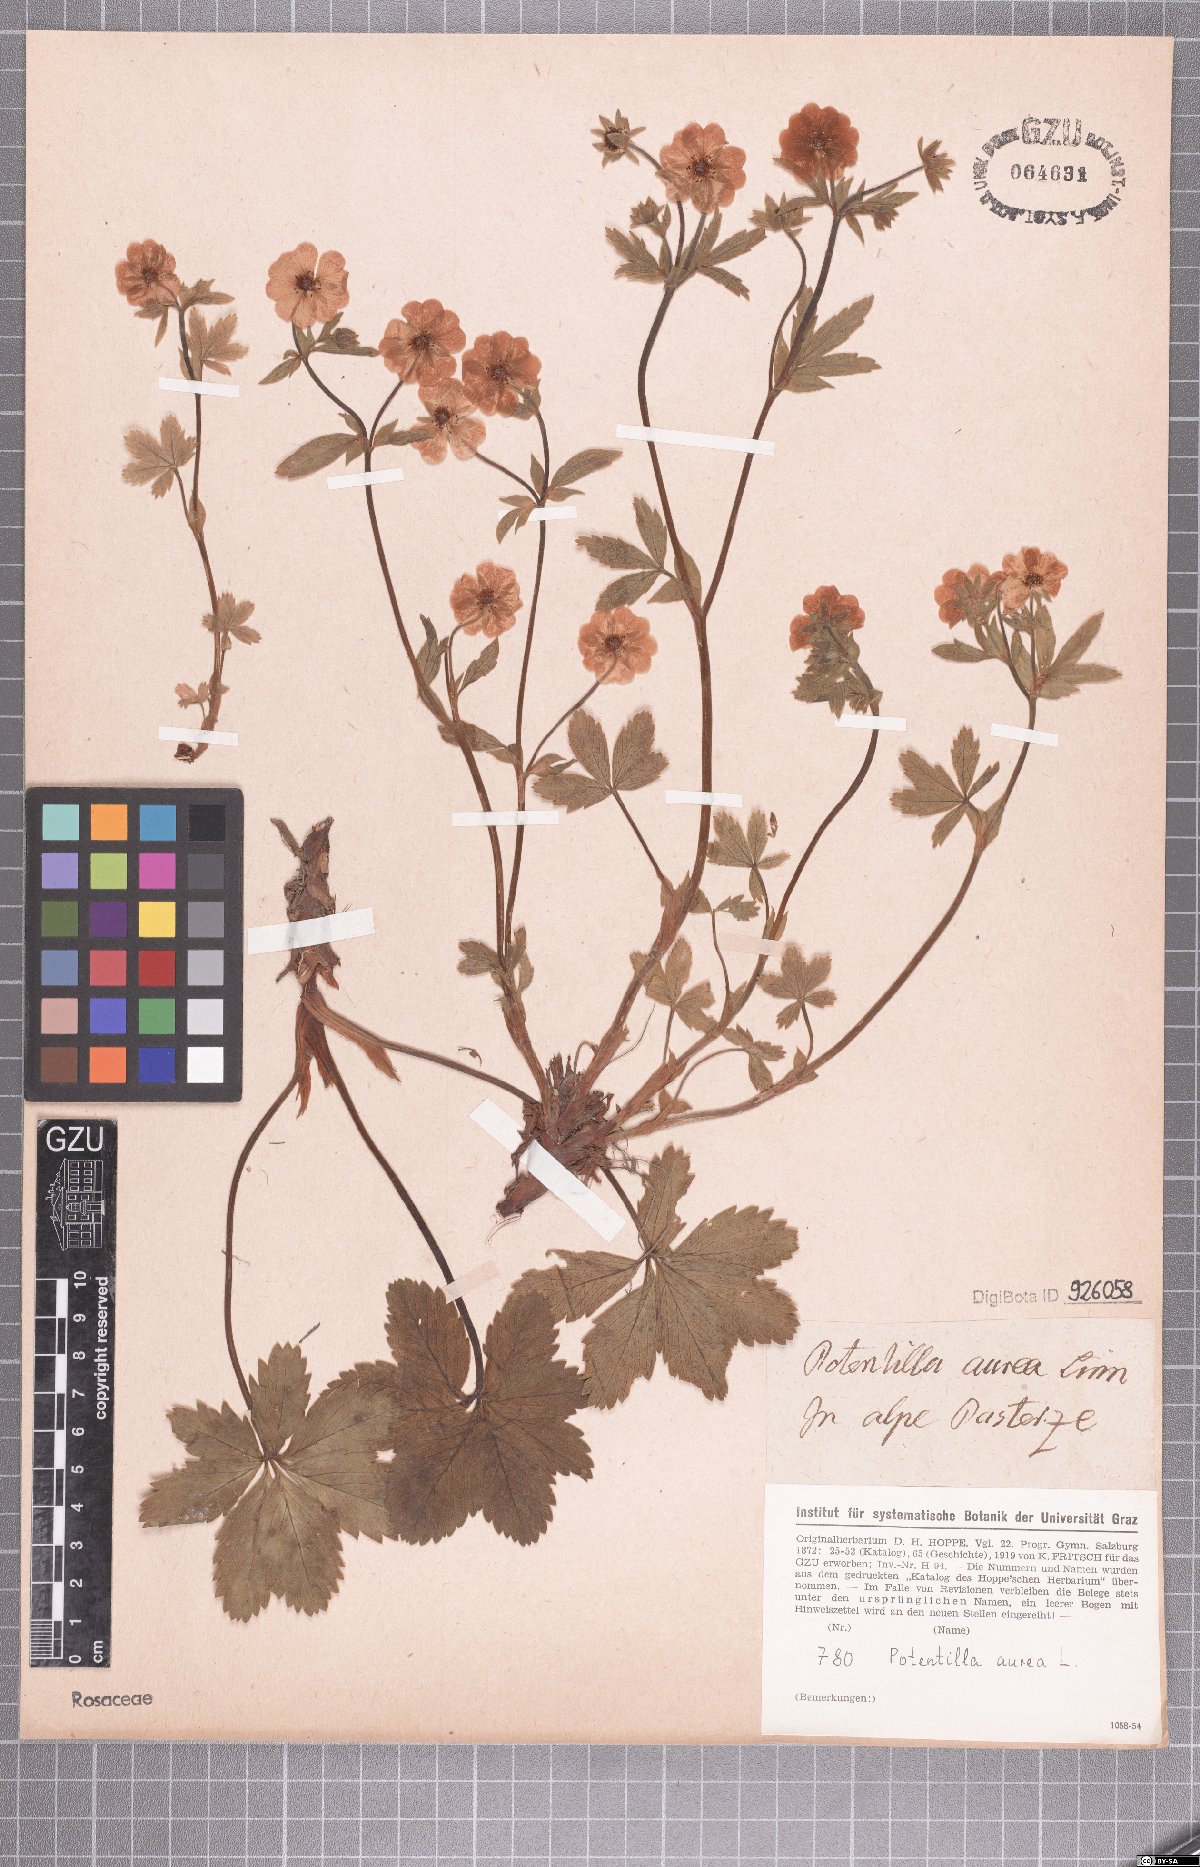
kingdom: Plantae
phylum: Tracheophyta
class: Magnoliopsida
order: Rosales
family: Rosaceae
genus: Potentilla
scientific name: Potentilla aurea
